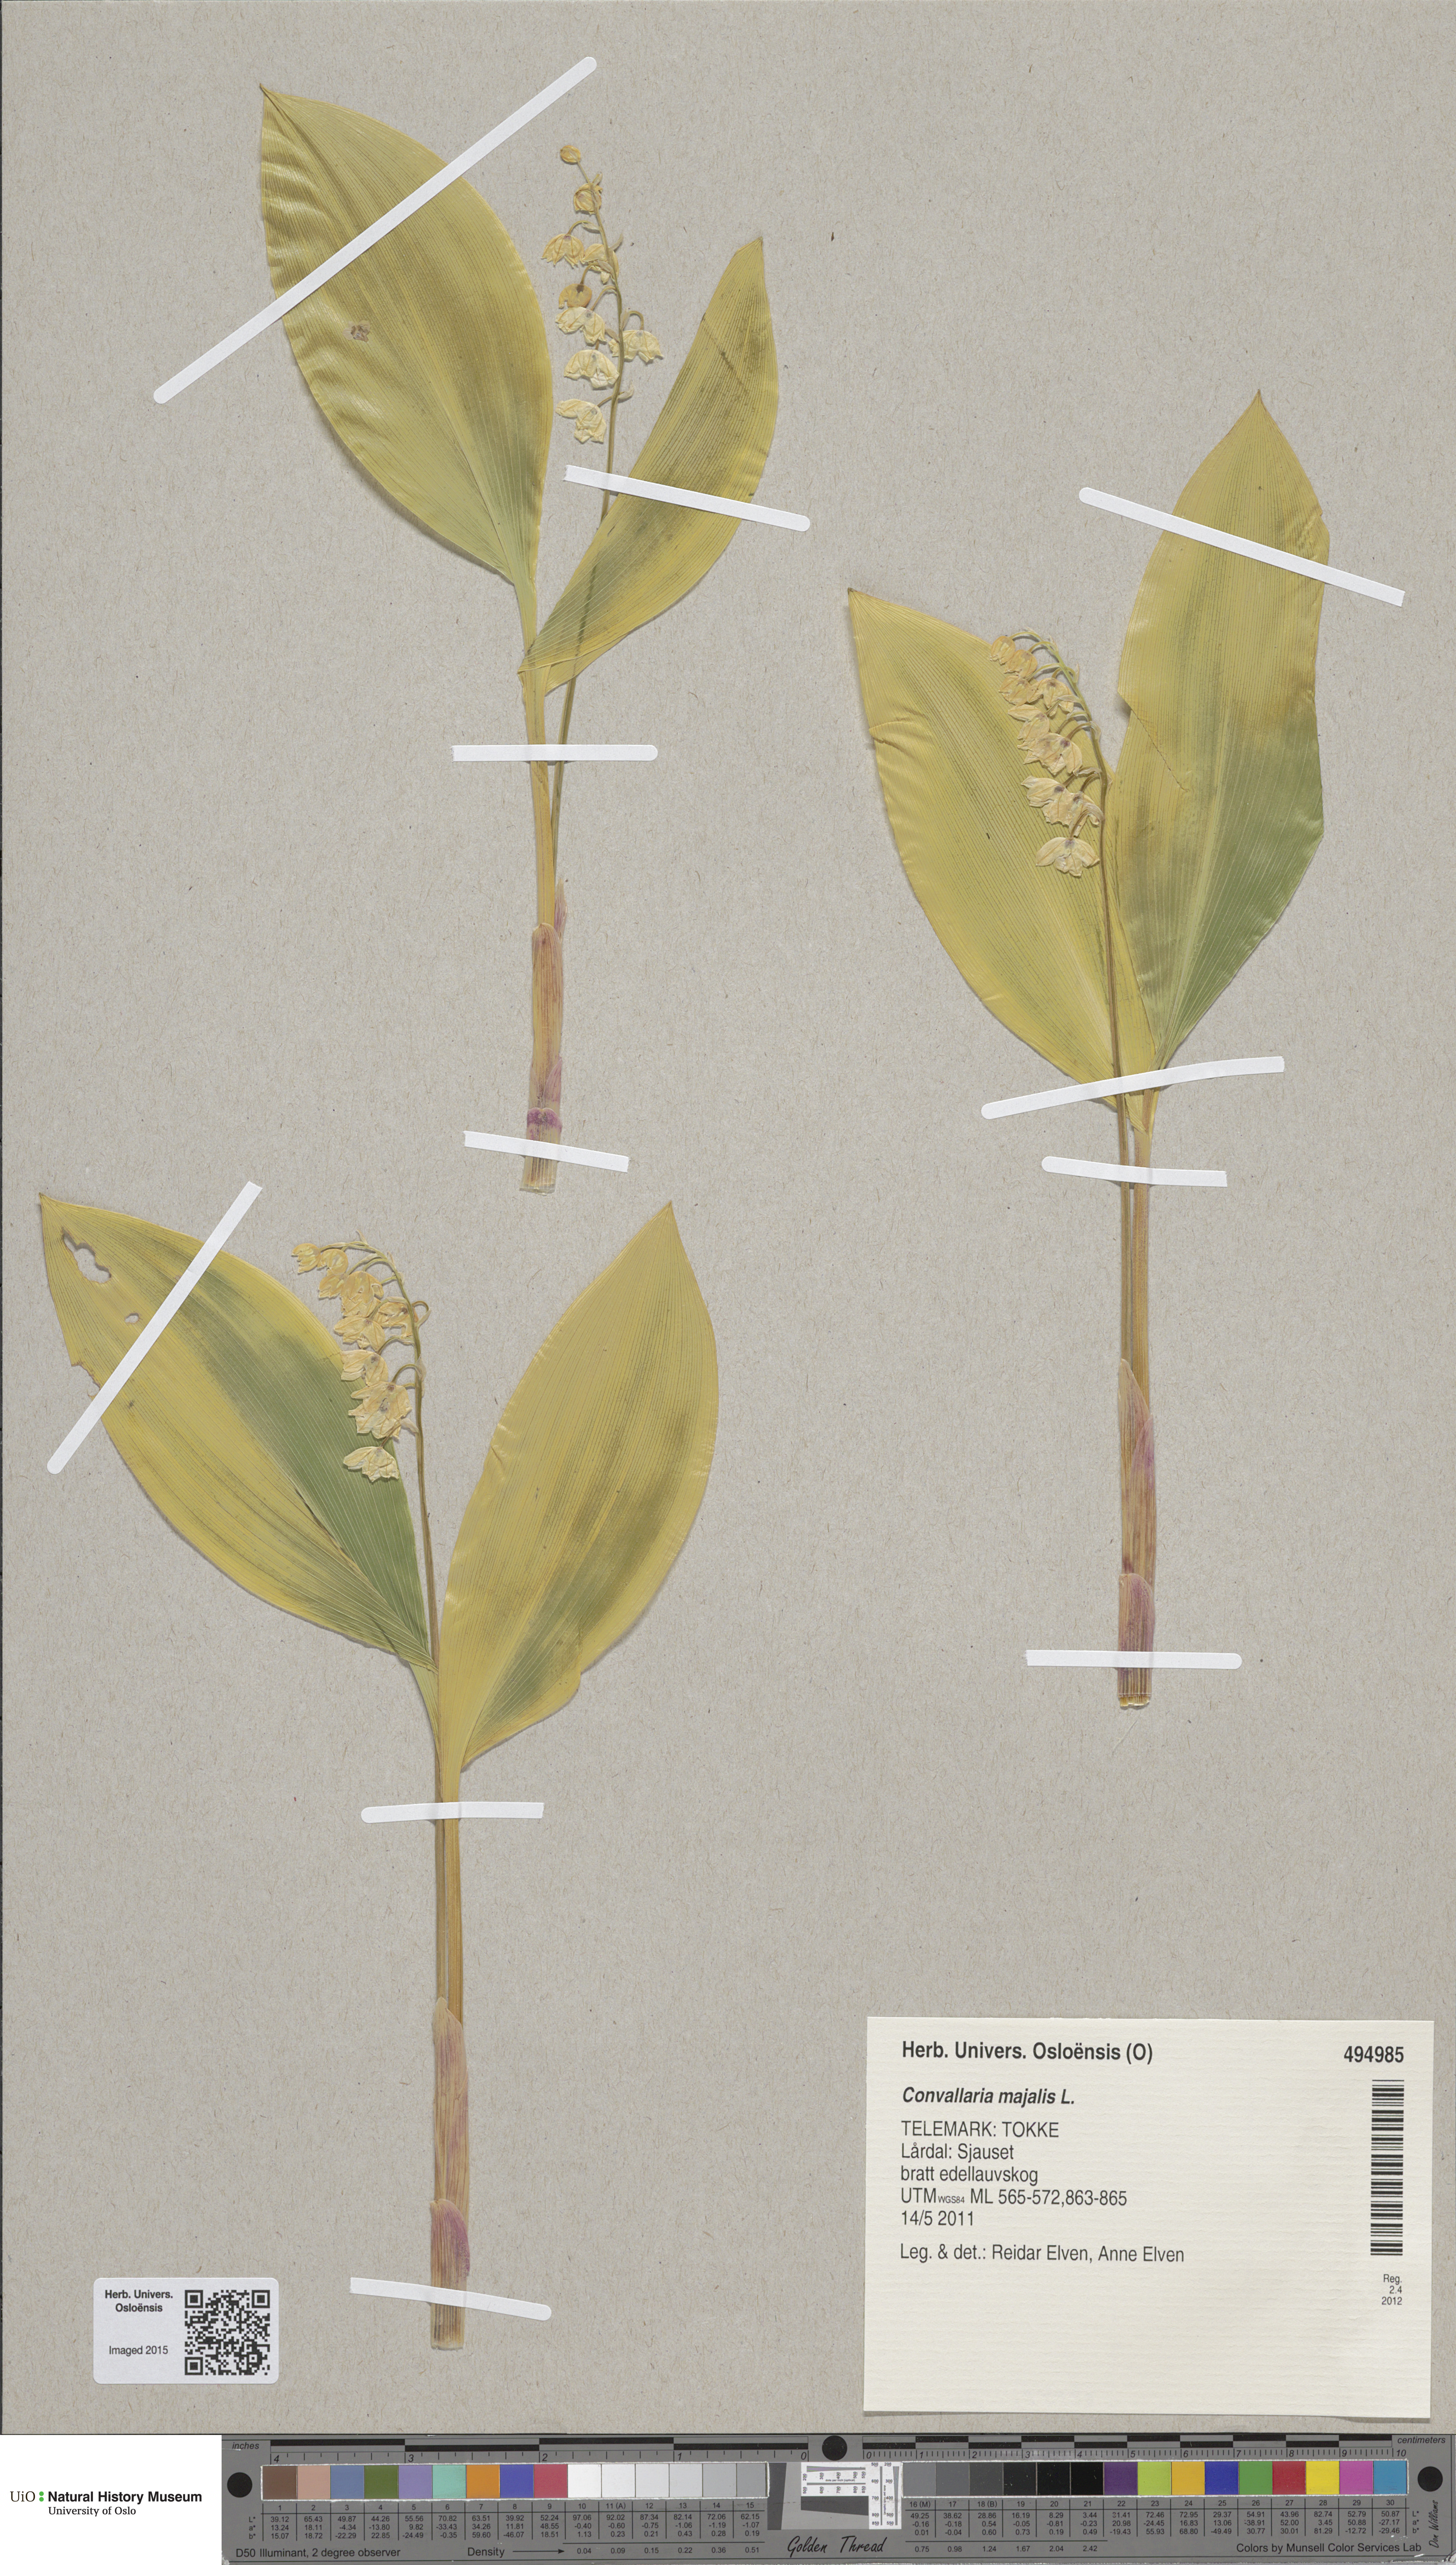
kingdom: Plantae
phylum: Tracheophyta
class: Liliopsida
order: Asparagales
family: Asparagaceae
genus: Convallaria
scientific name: Convallaria majalis
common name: Lily-of-the-valley
